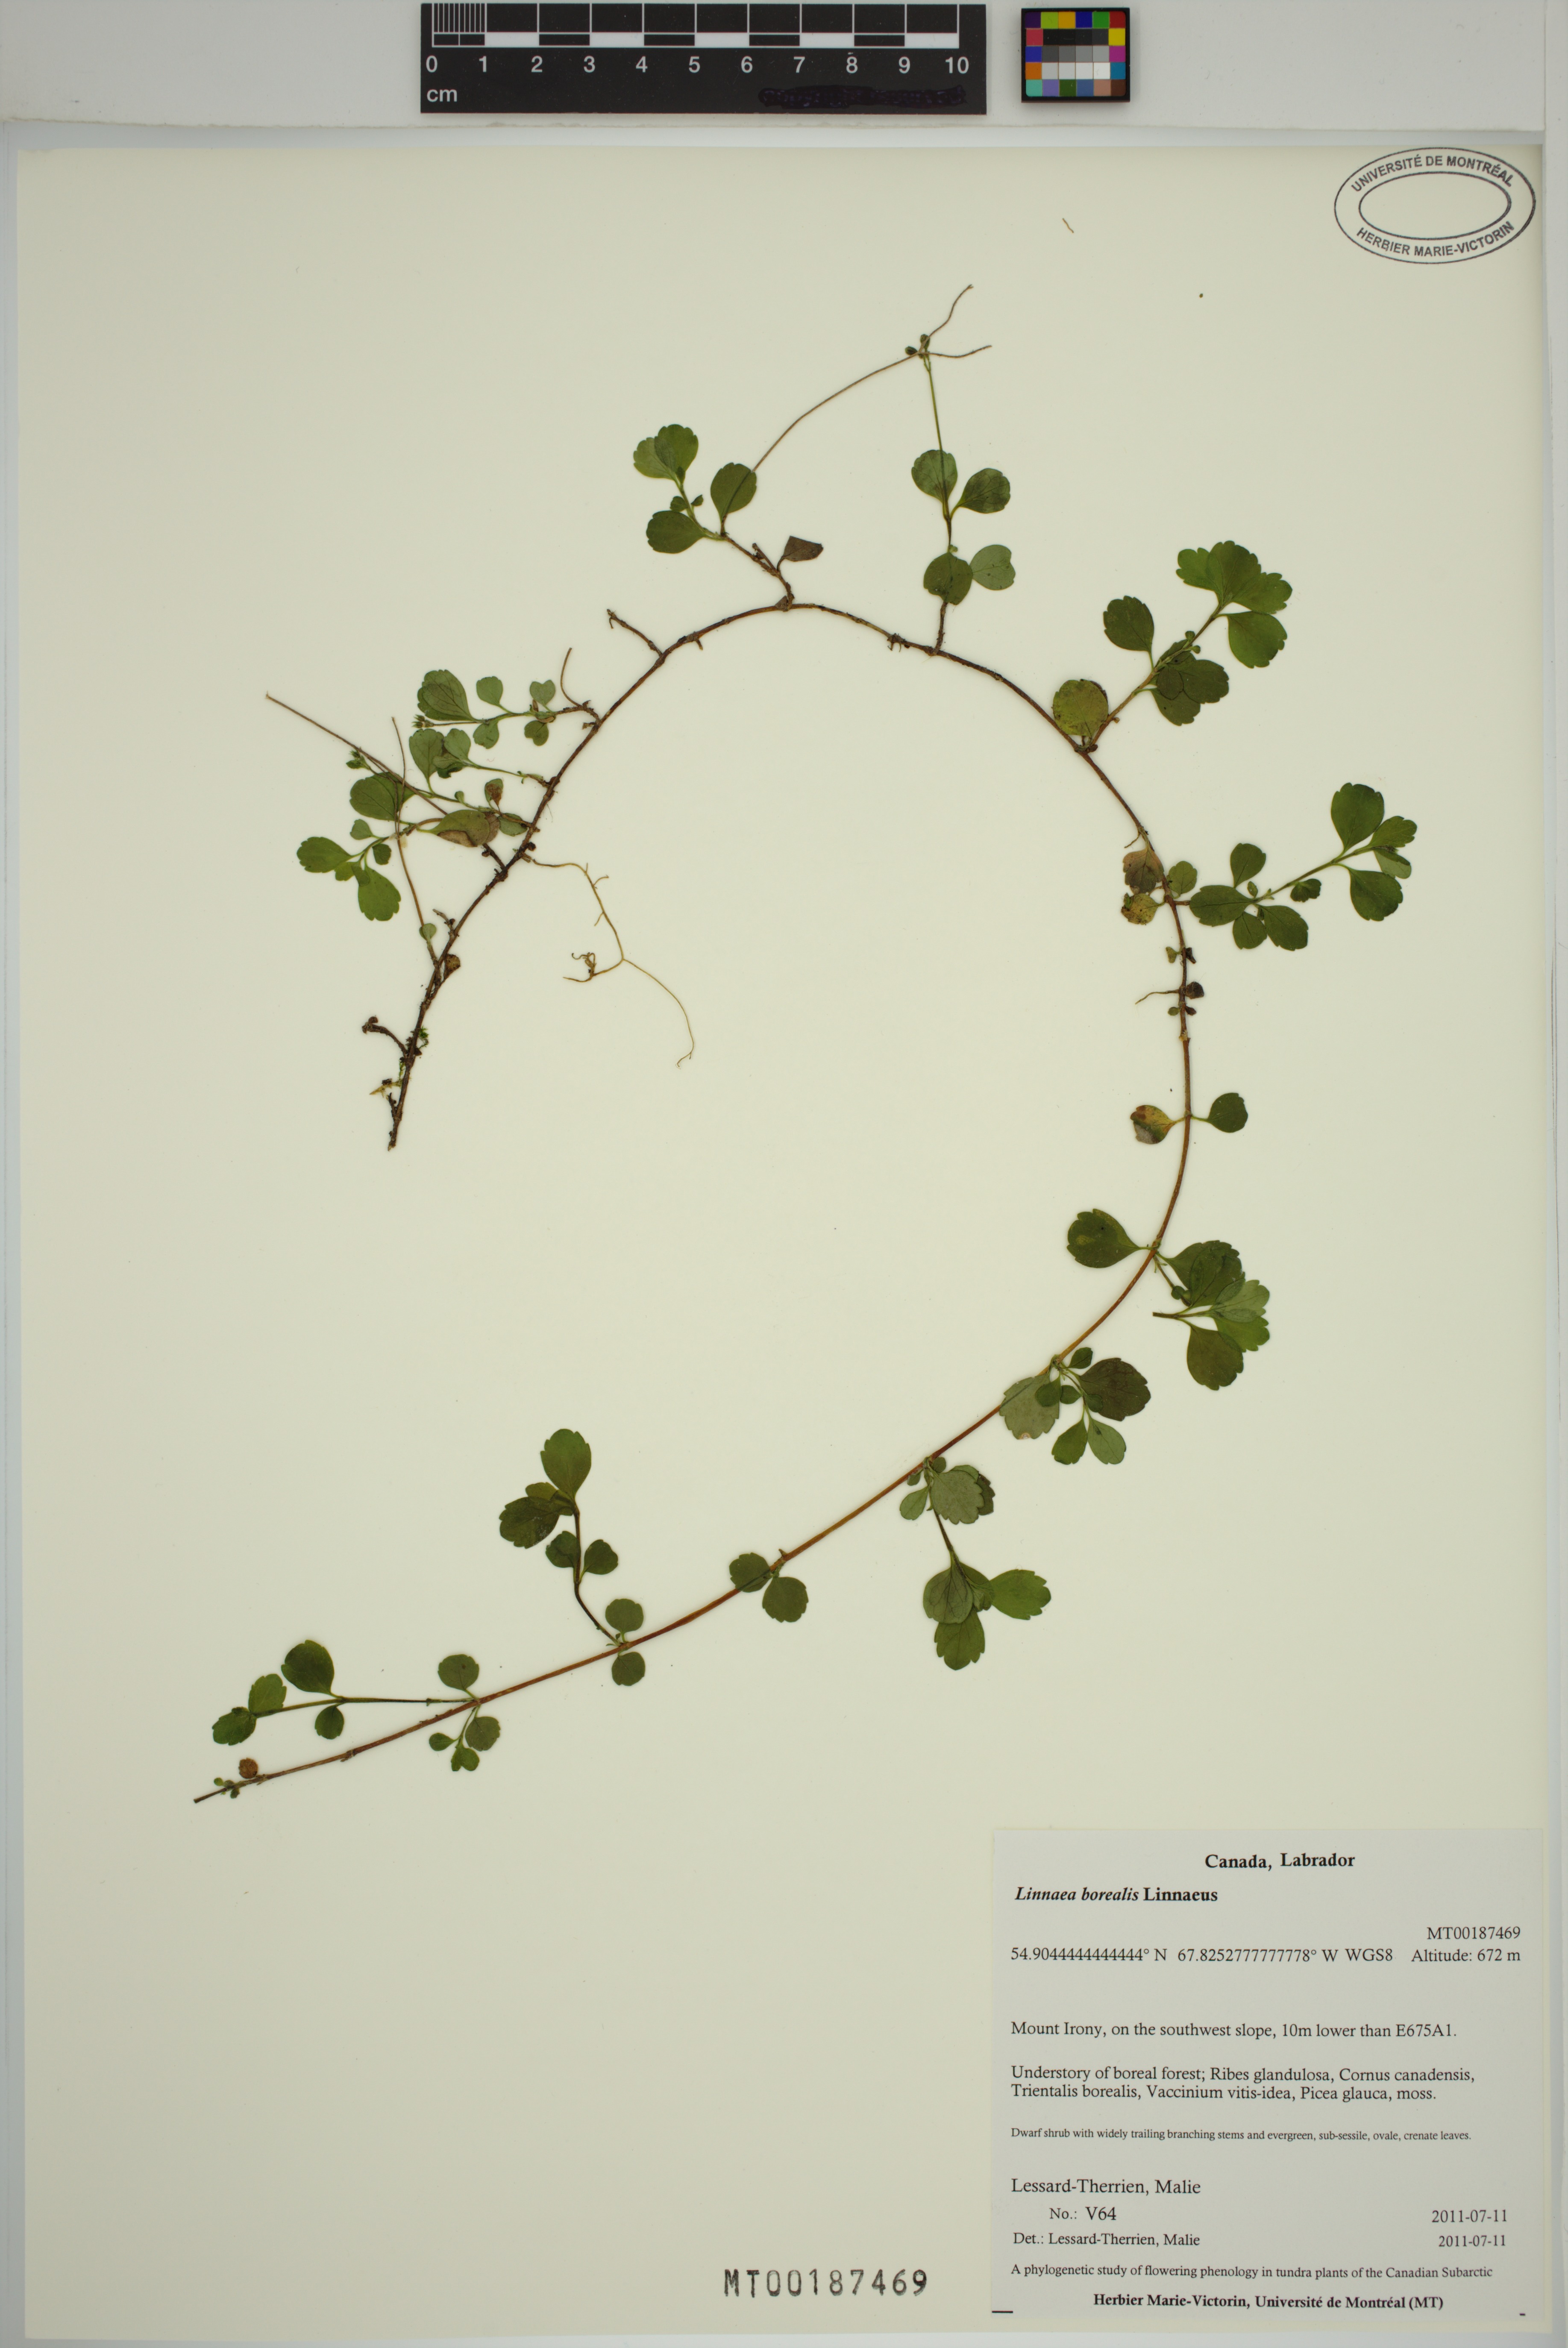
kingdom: Plantae
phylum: Tracheophyta
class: Magnoliopsida
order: Dipsacales
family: Caprifoliaceae
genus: Linnaea
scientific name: Linnaea borealis
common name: Twinflower
